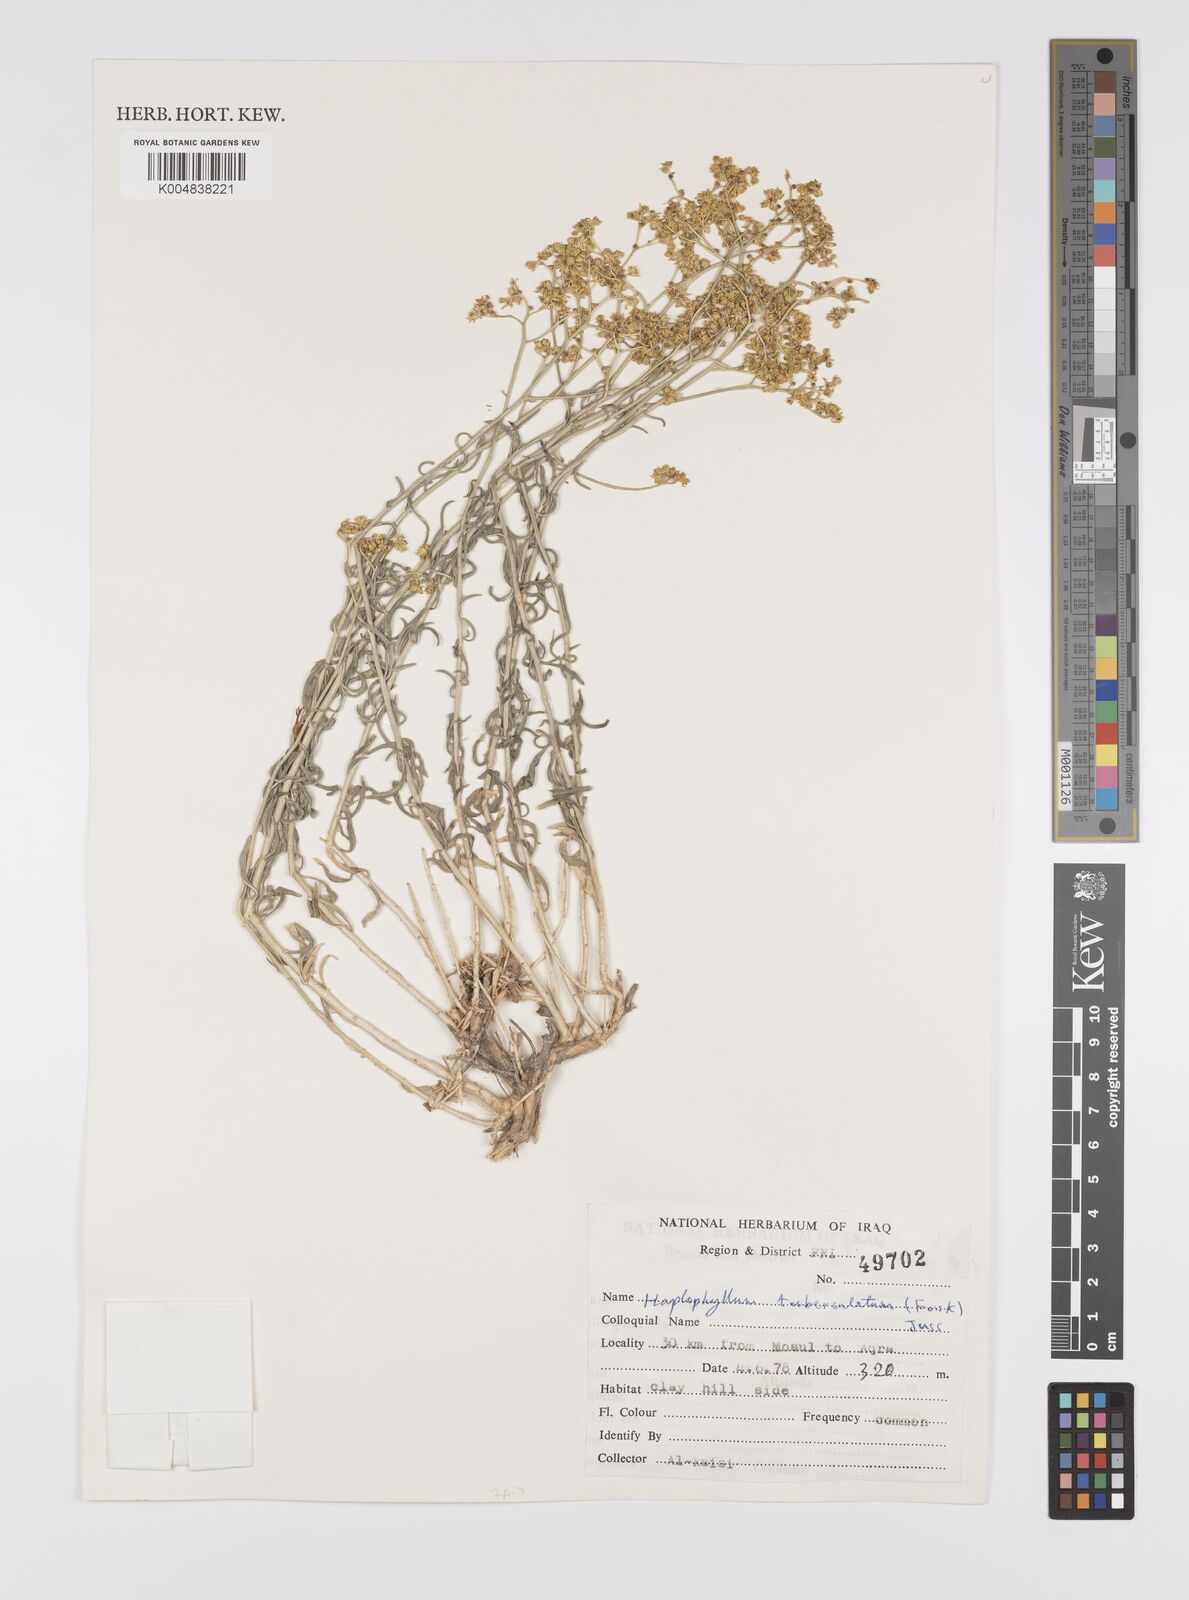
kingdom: Plantae
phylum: Tracheophyta
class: Magnoliopsida
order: Sapindales
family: Rutaceae
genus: Haplophyllum
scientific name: Haplophyllum tuberculatum
